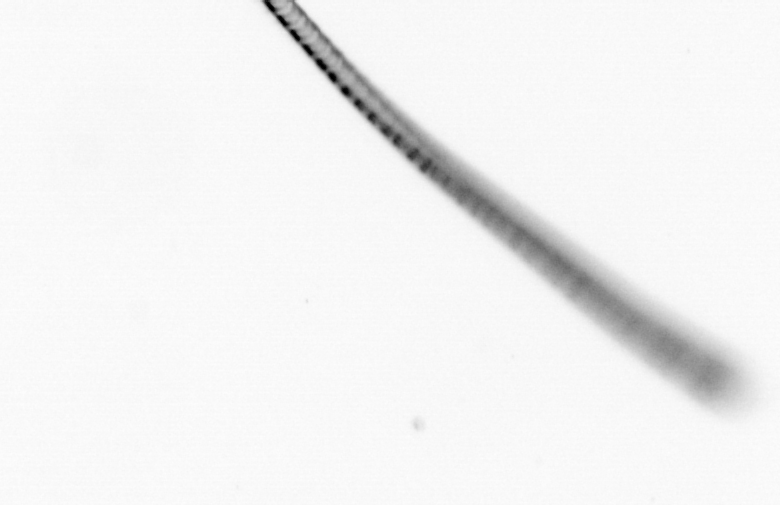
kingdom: Chromista
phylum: Ochrophyta
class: Bacillariophyceae
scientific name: Bacillariophyceae
